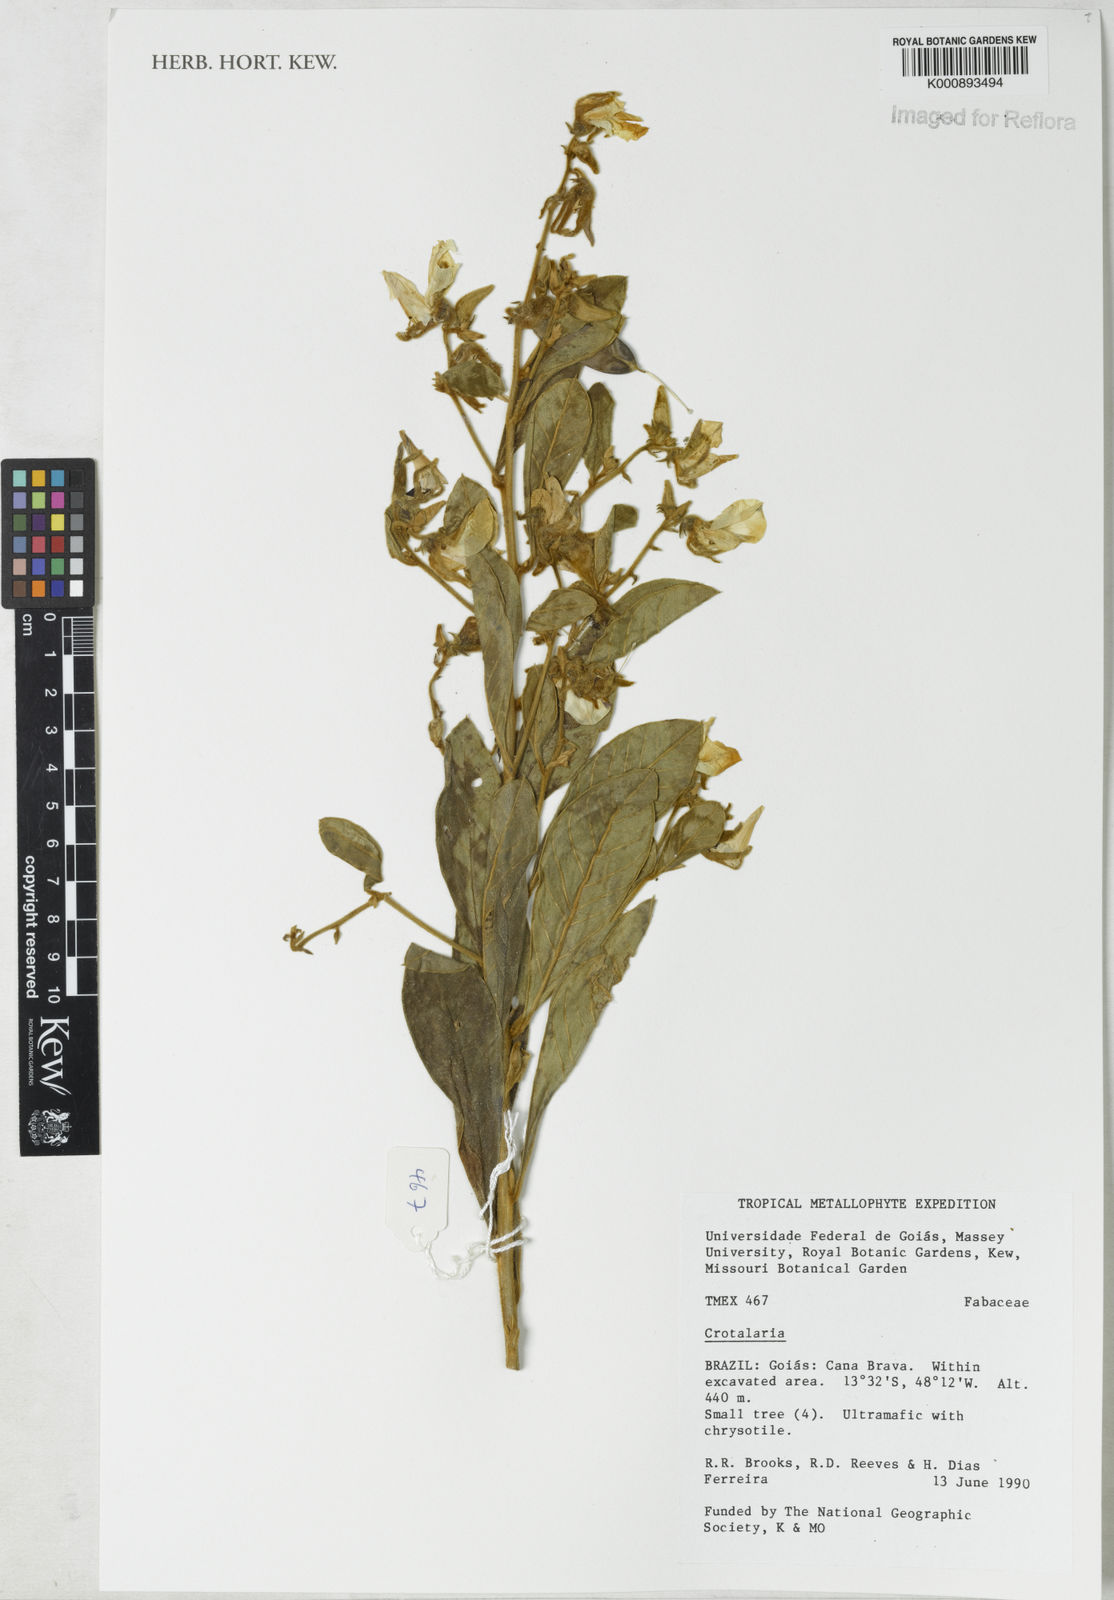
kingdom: Plantae
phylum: Tracheophyta
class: Magnoliopsida
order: Fabales
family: Fabaceae
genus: Crotalaria
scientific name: Crotalaria subdecurrens
